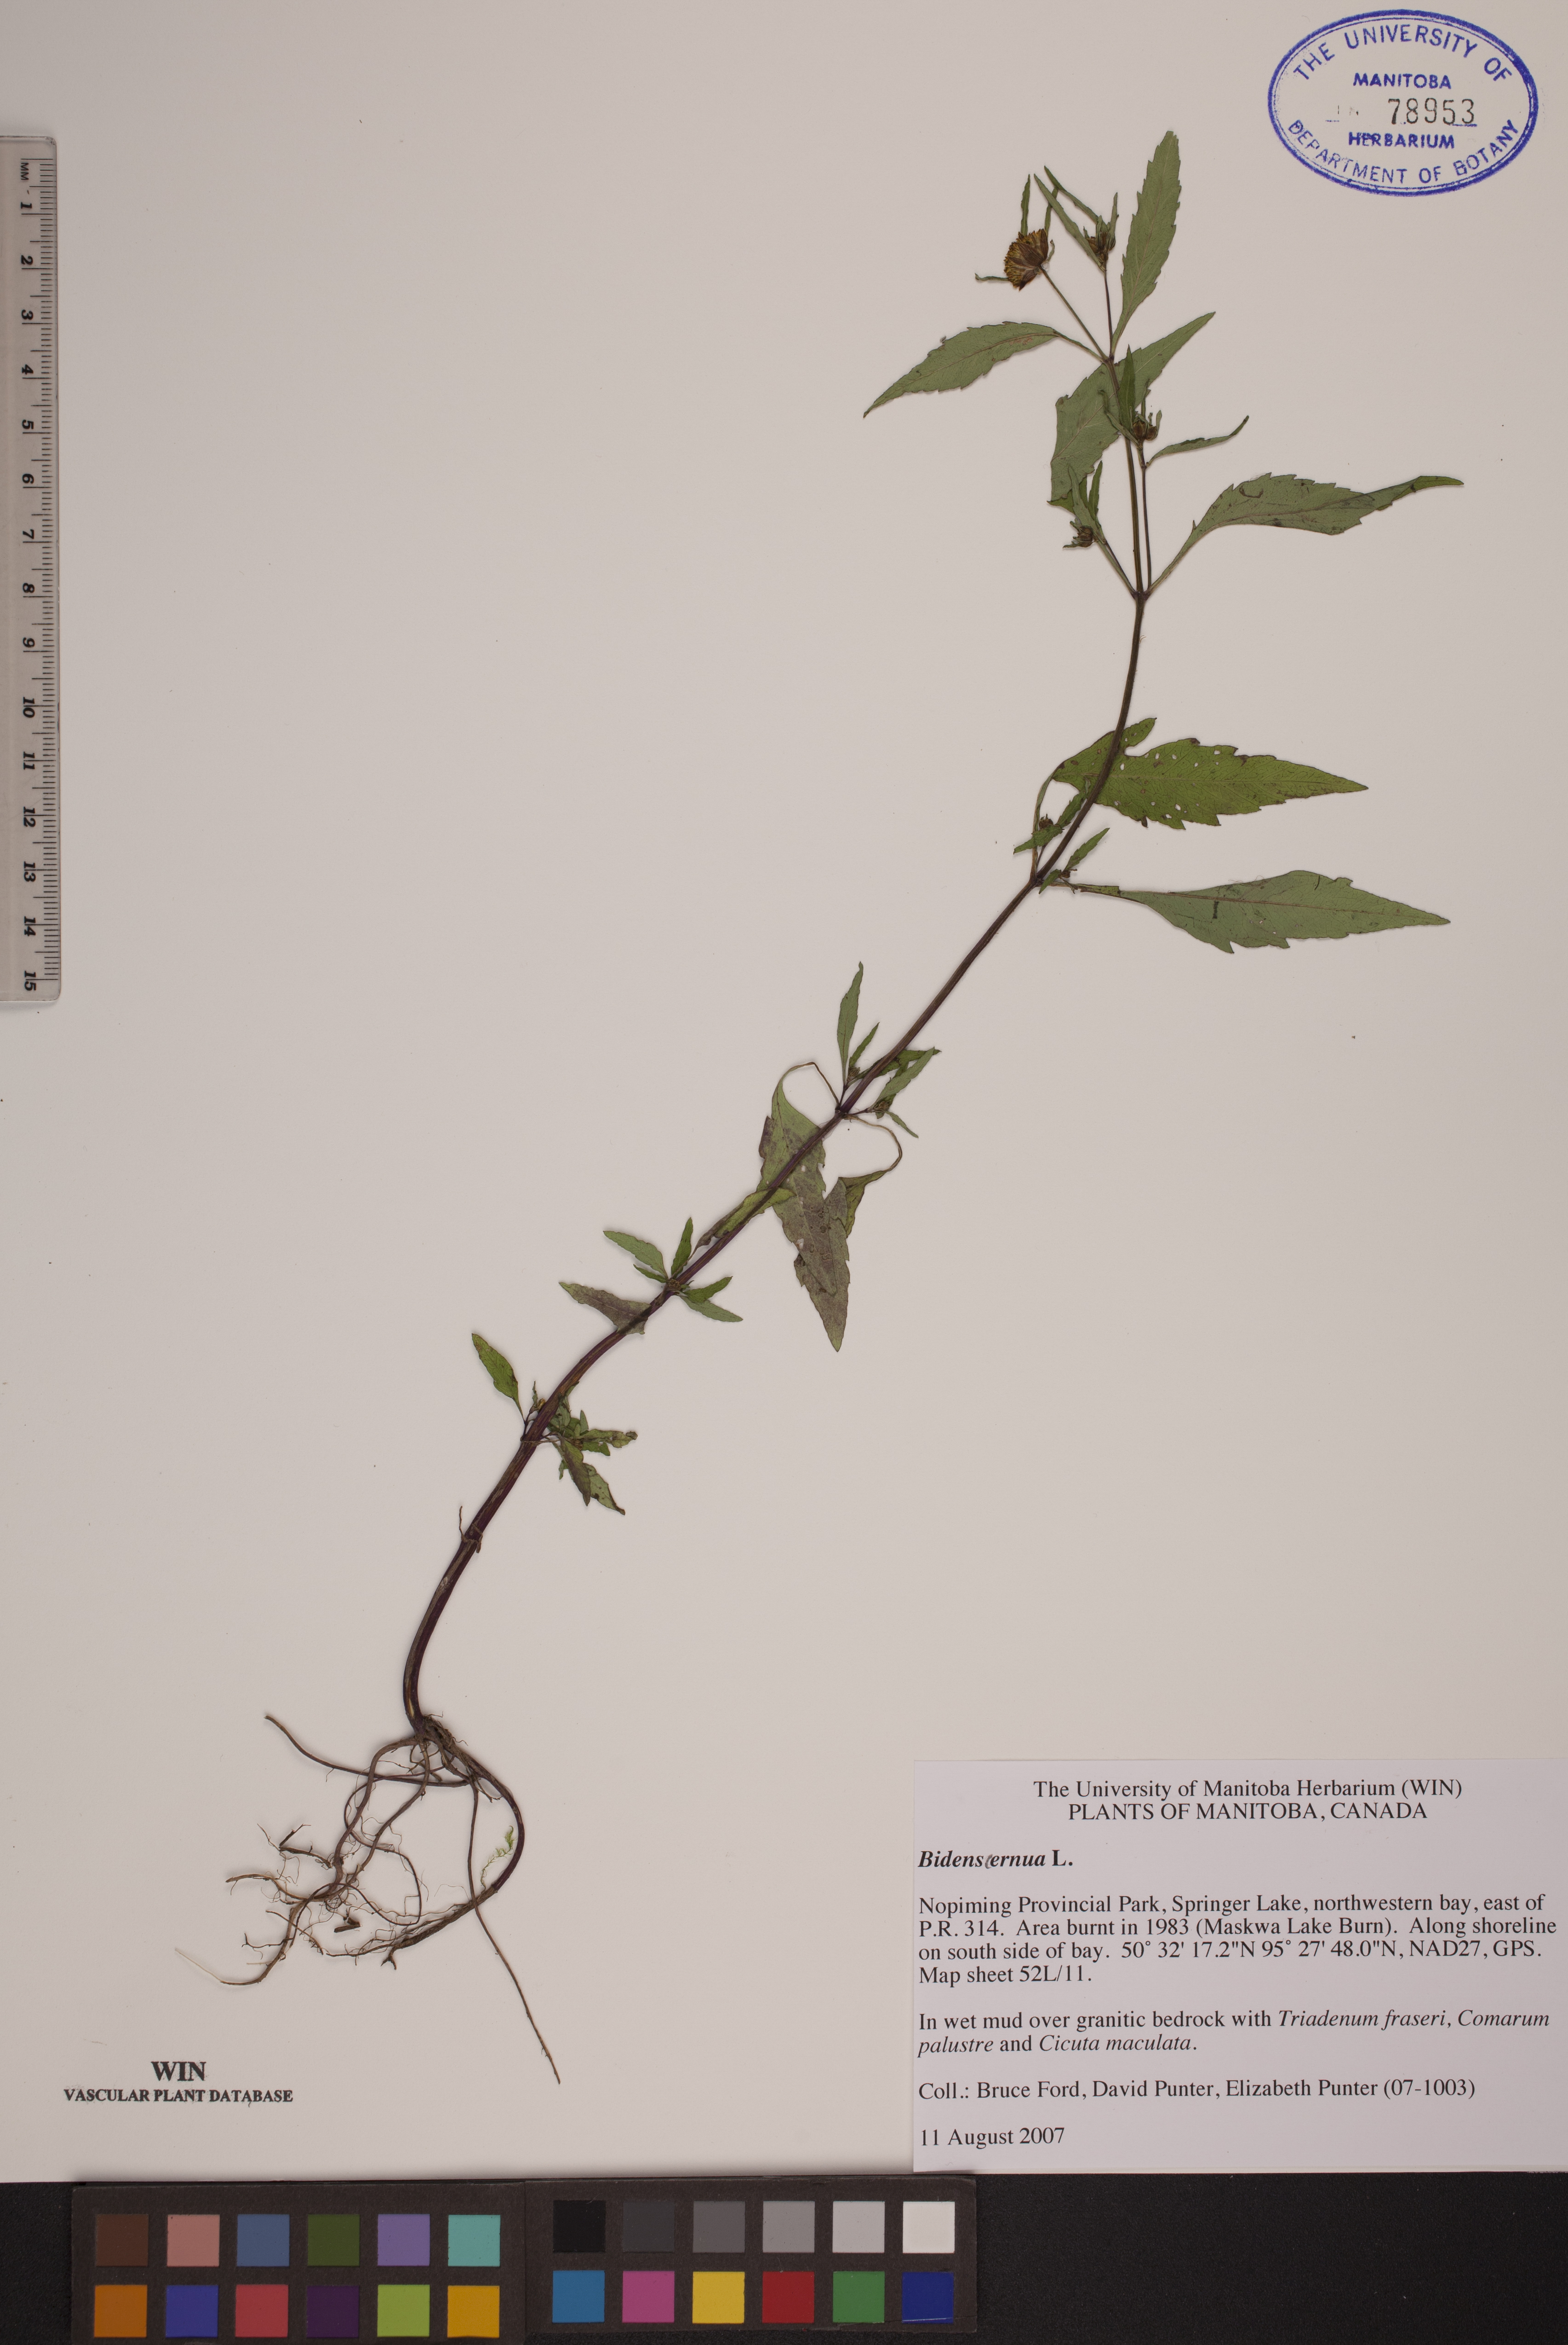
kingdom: Plantae
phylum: Tracheophyta
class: Magnoliopsida
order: Asterales
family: Asteraceae
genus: Bidens
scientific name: Bidens cernua
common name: Nodding bur-marigold
